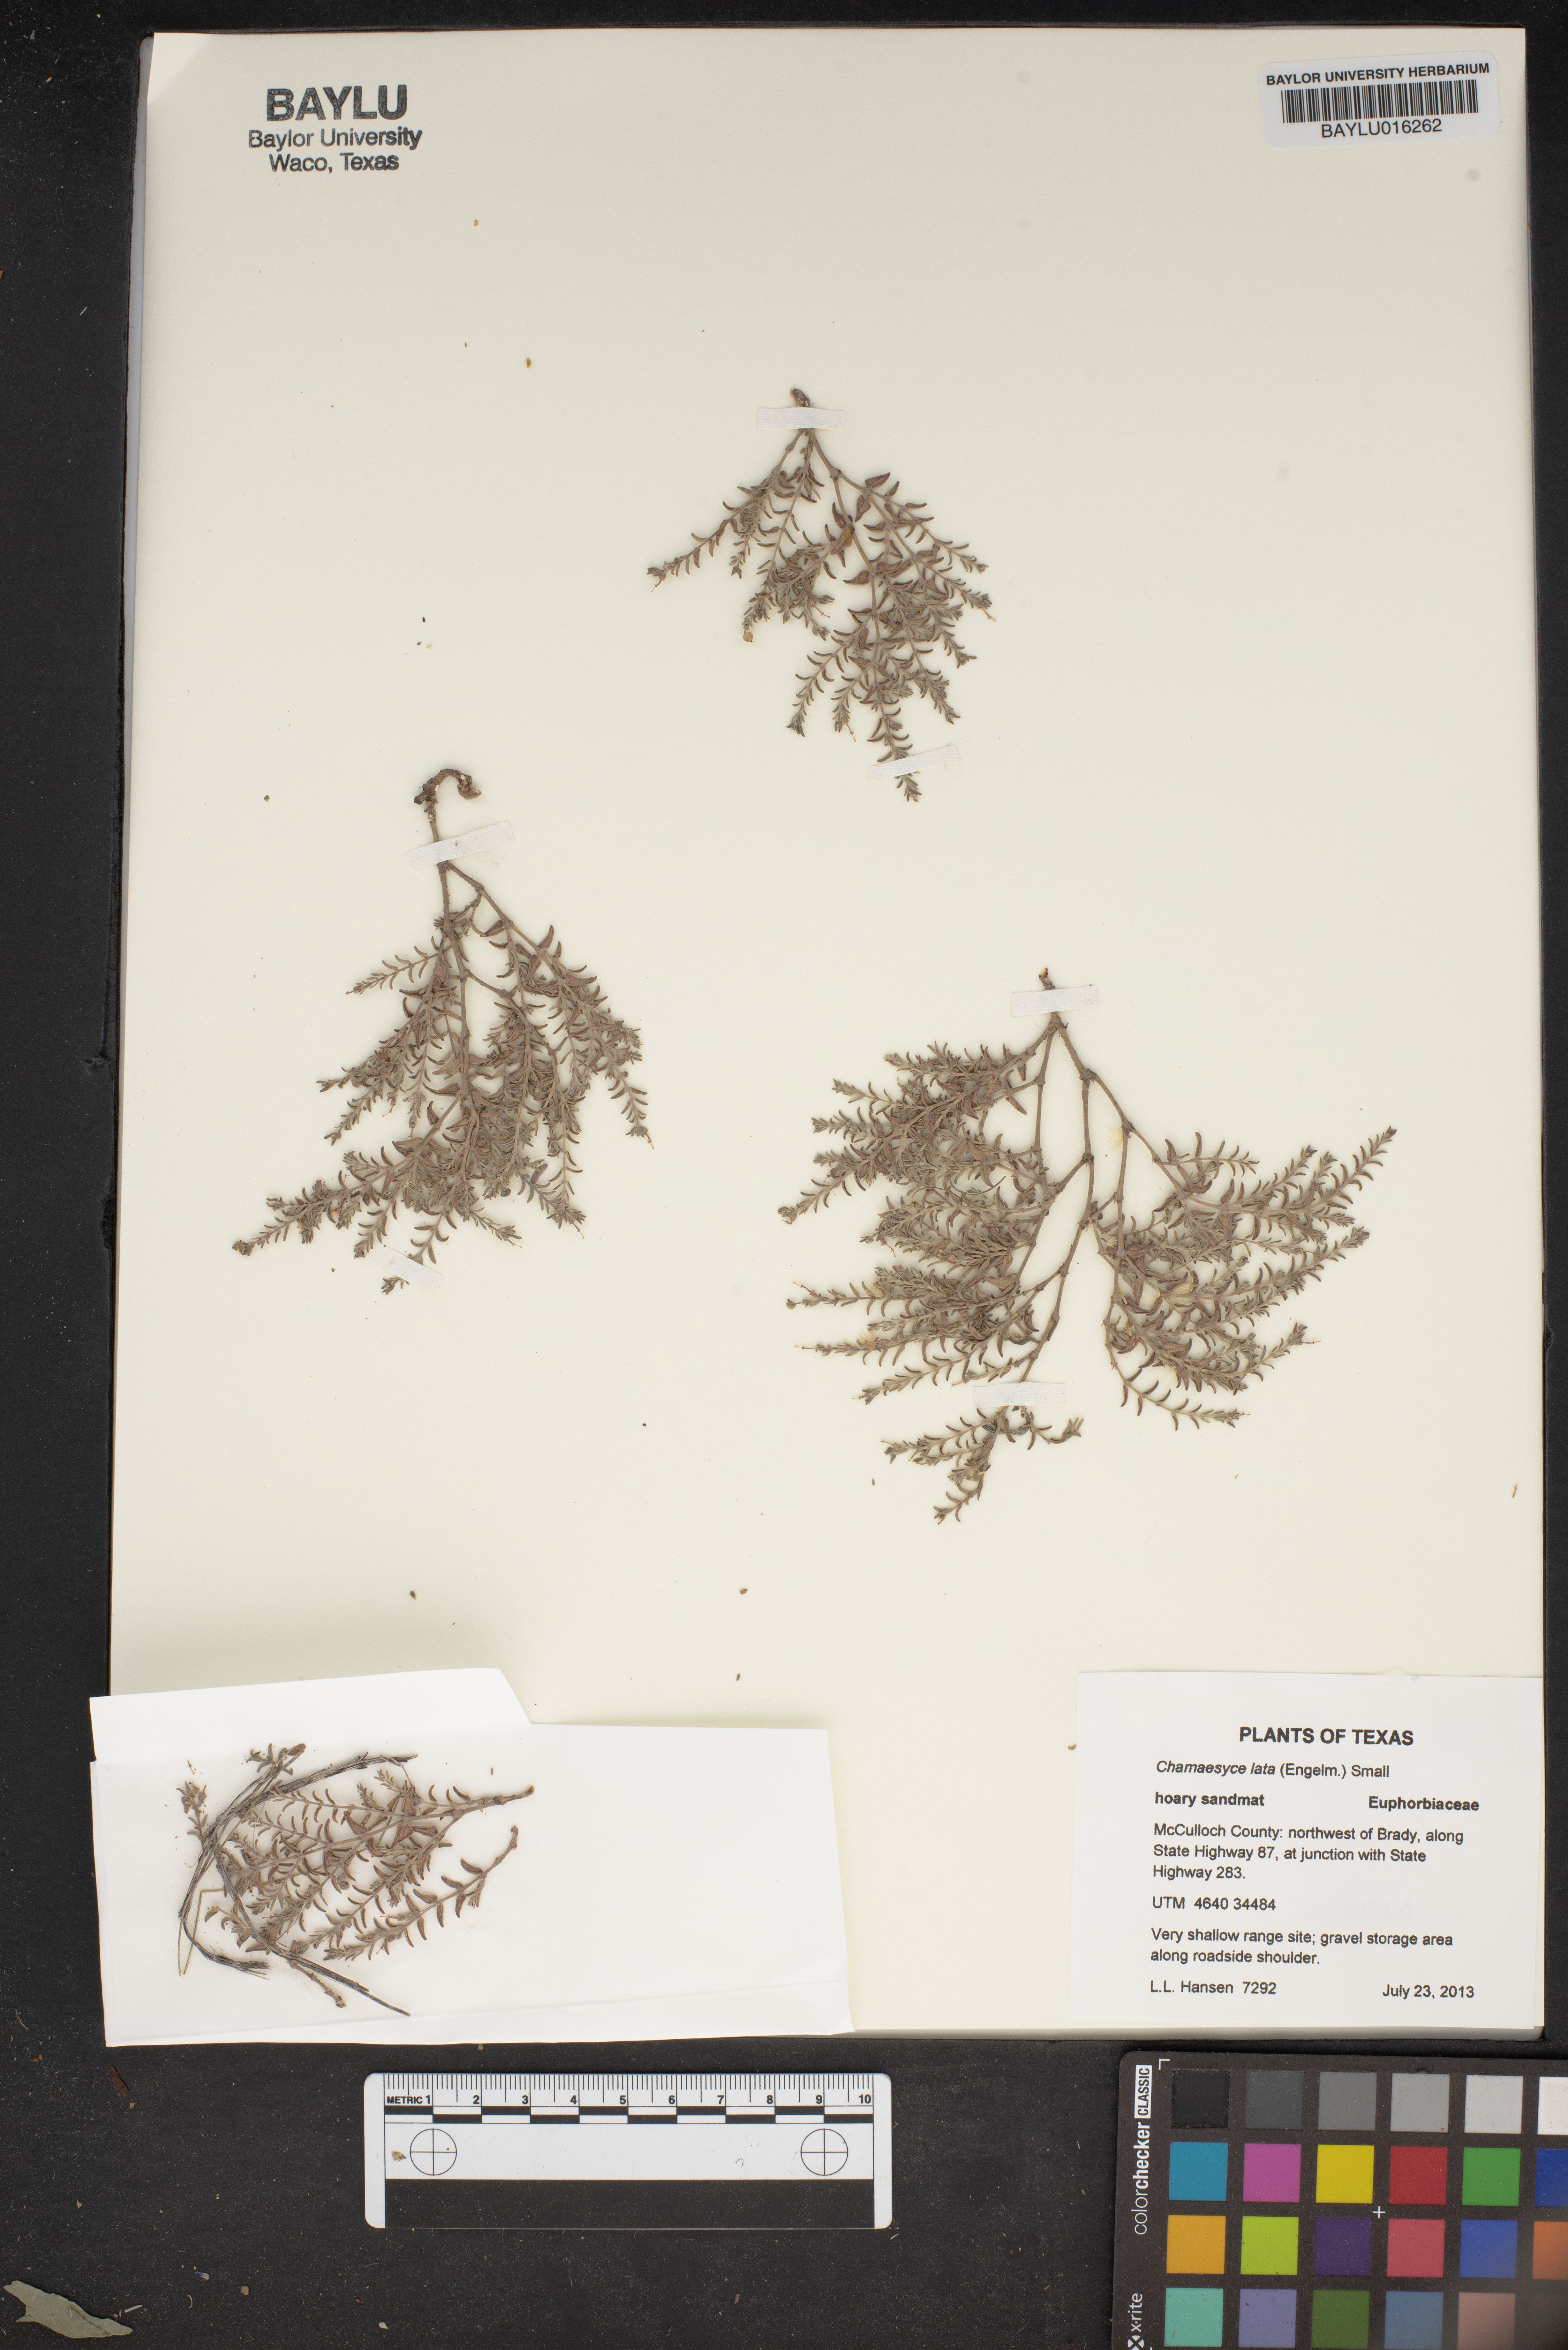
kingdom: Plantae
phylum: Tracheophyta
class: Magnoliopsida
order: Malpighiales
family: Euphorbiaceae
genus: Euphorbia
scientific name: Euphorbia lata
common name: Hoary euphorbia
